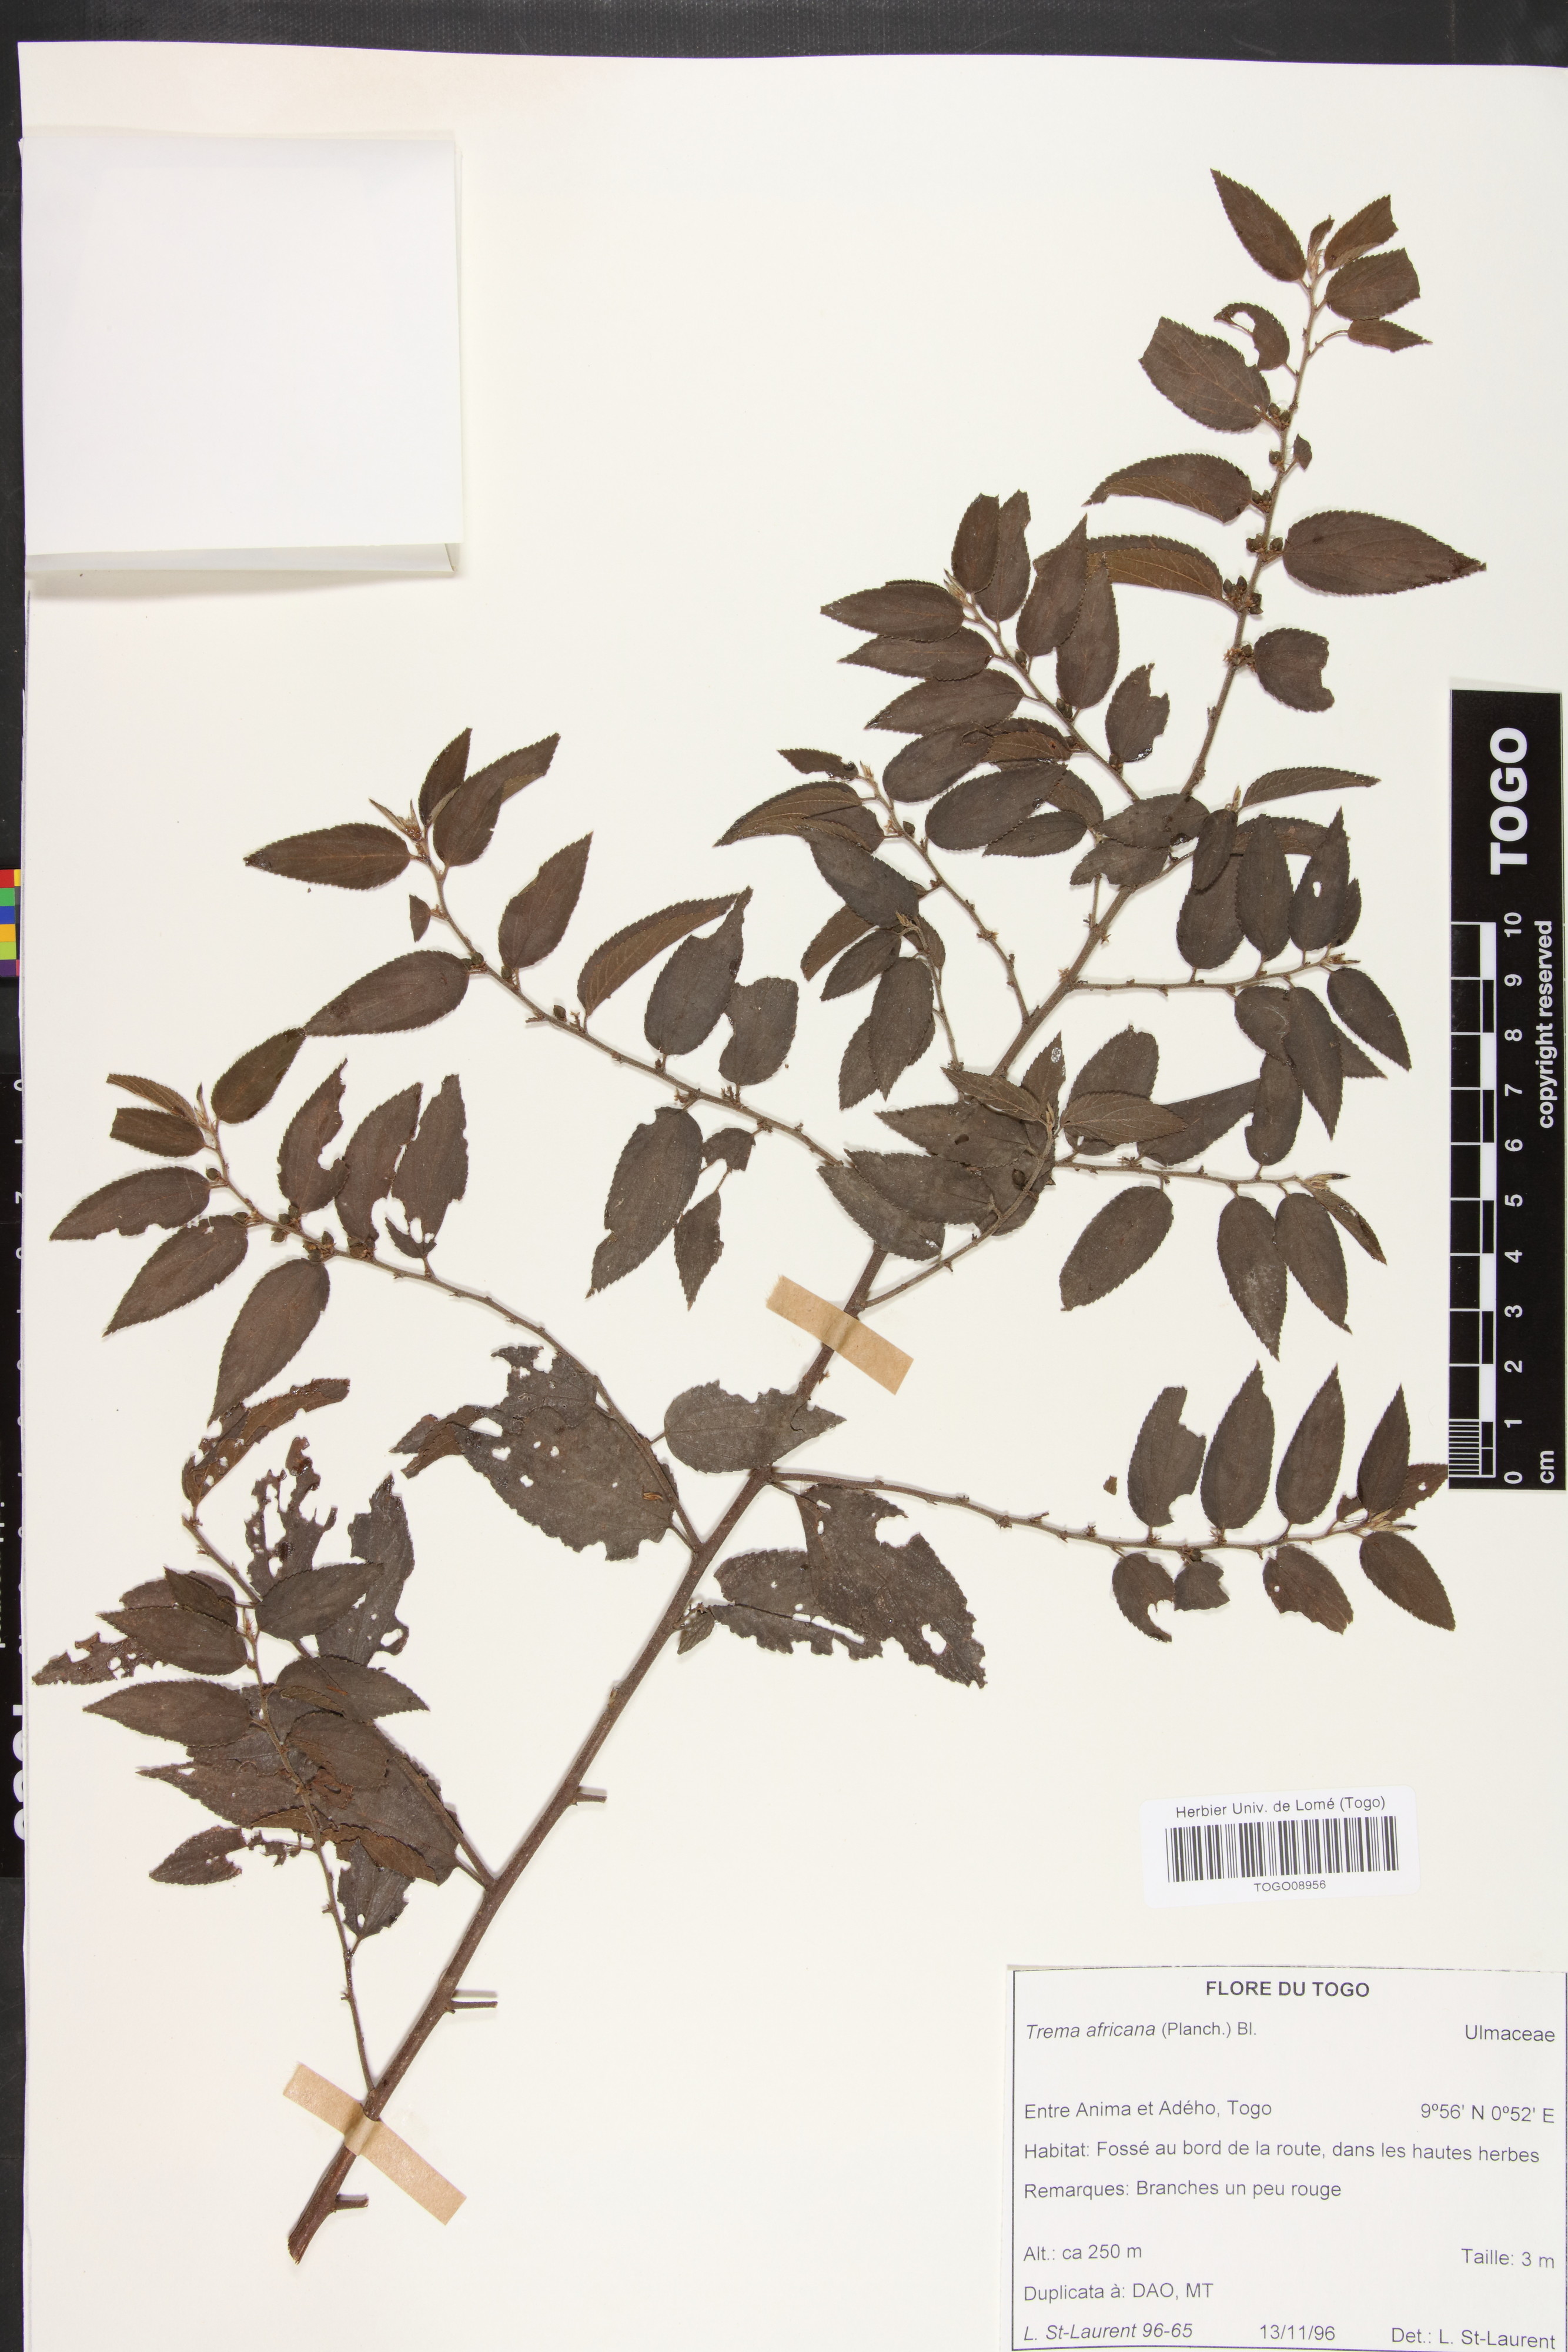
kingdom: Plantae
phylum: Tracheophyta
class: Magnoliopsida
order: Rosales
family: Cannabaceae
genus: Trema
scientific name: Trema orientale
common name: Indian charcoal tree
